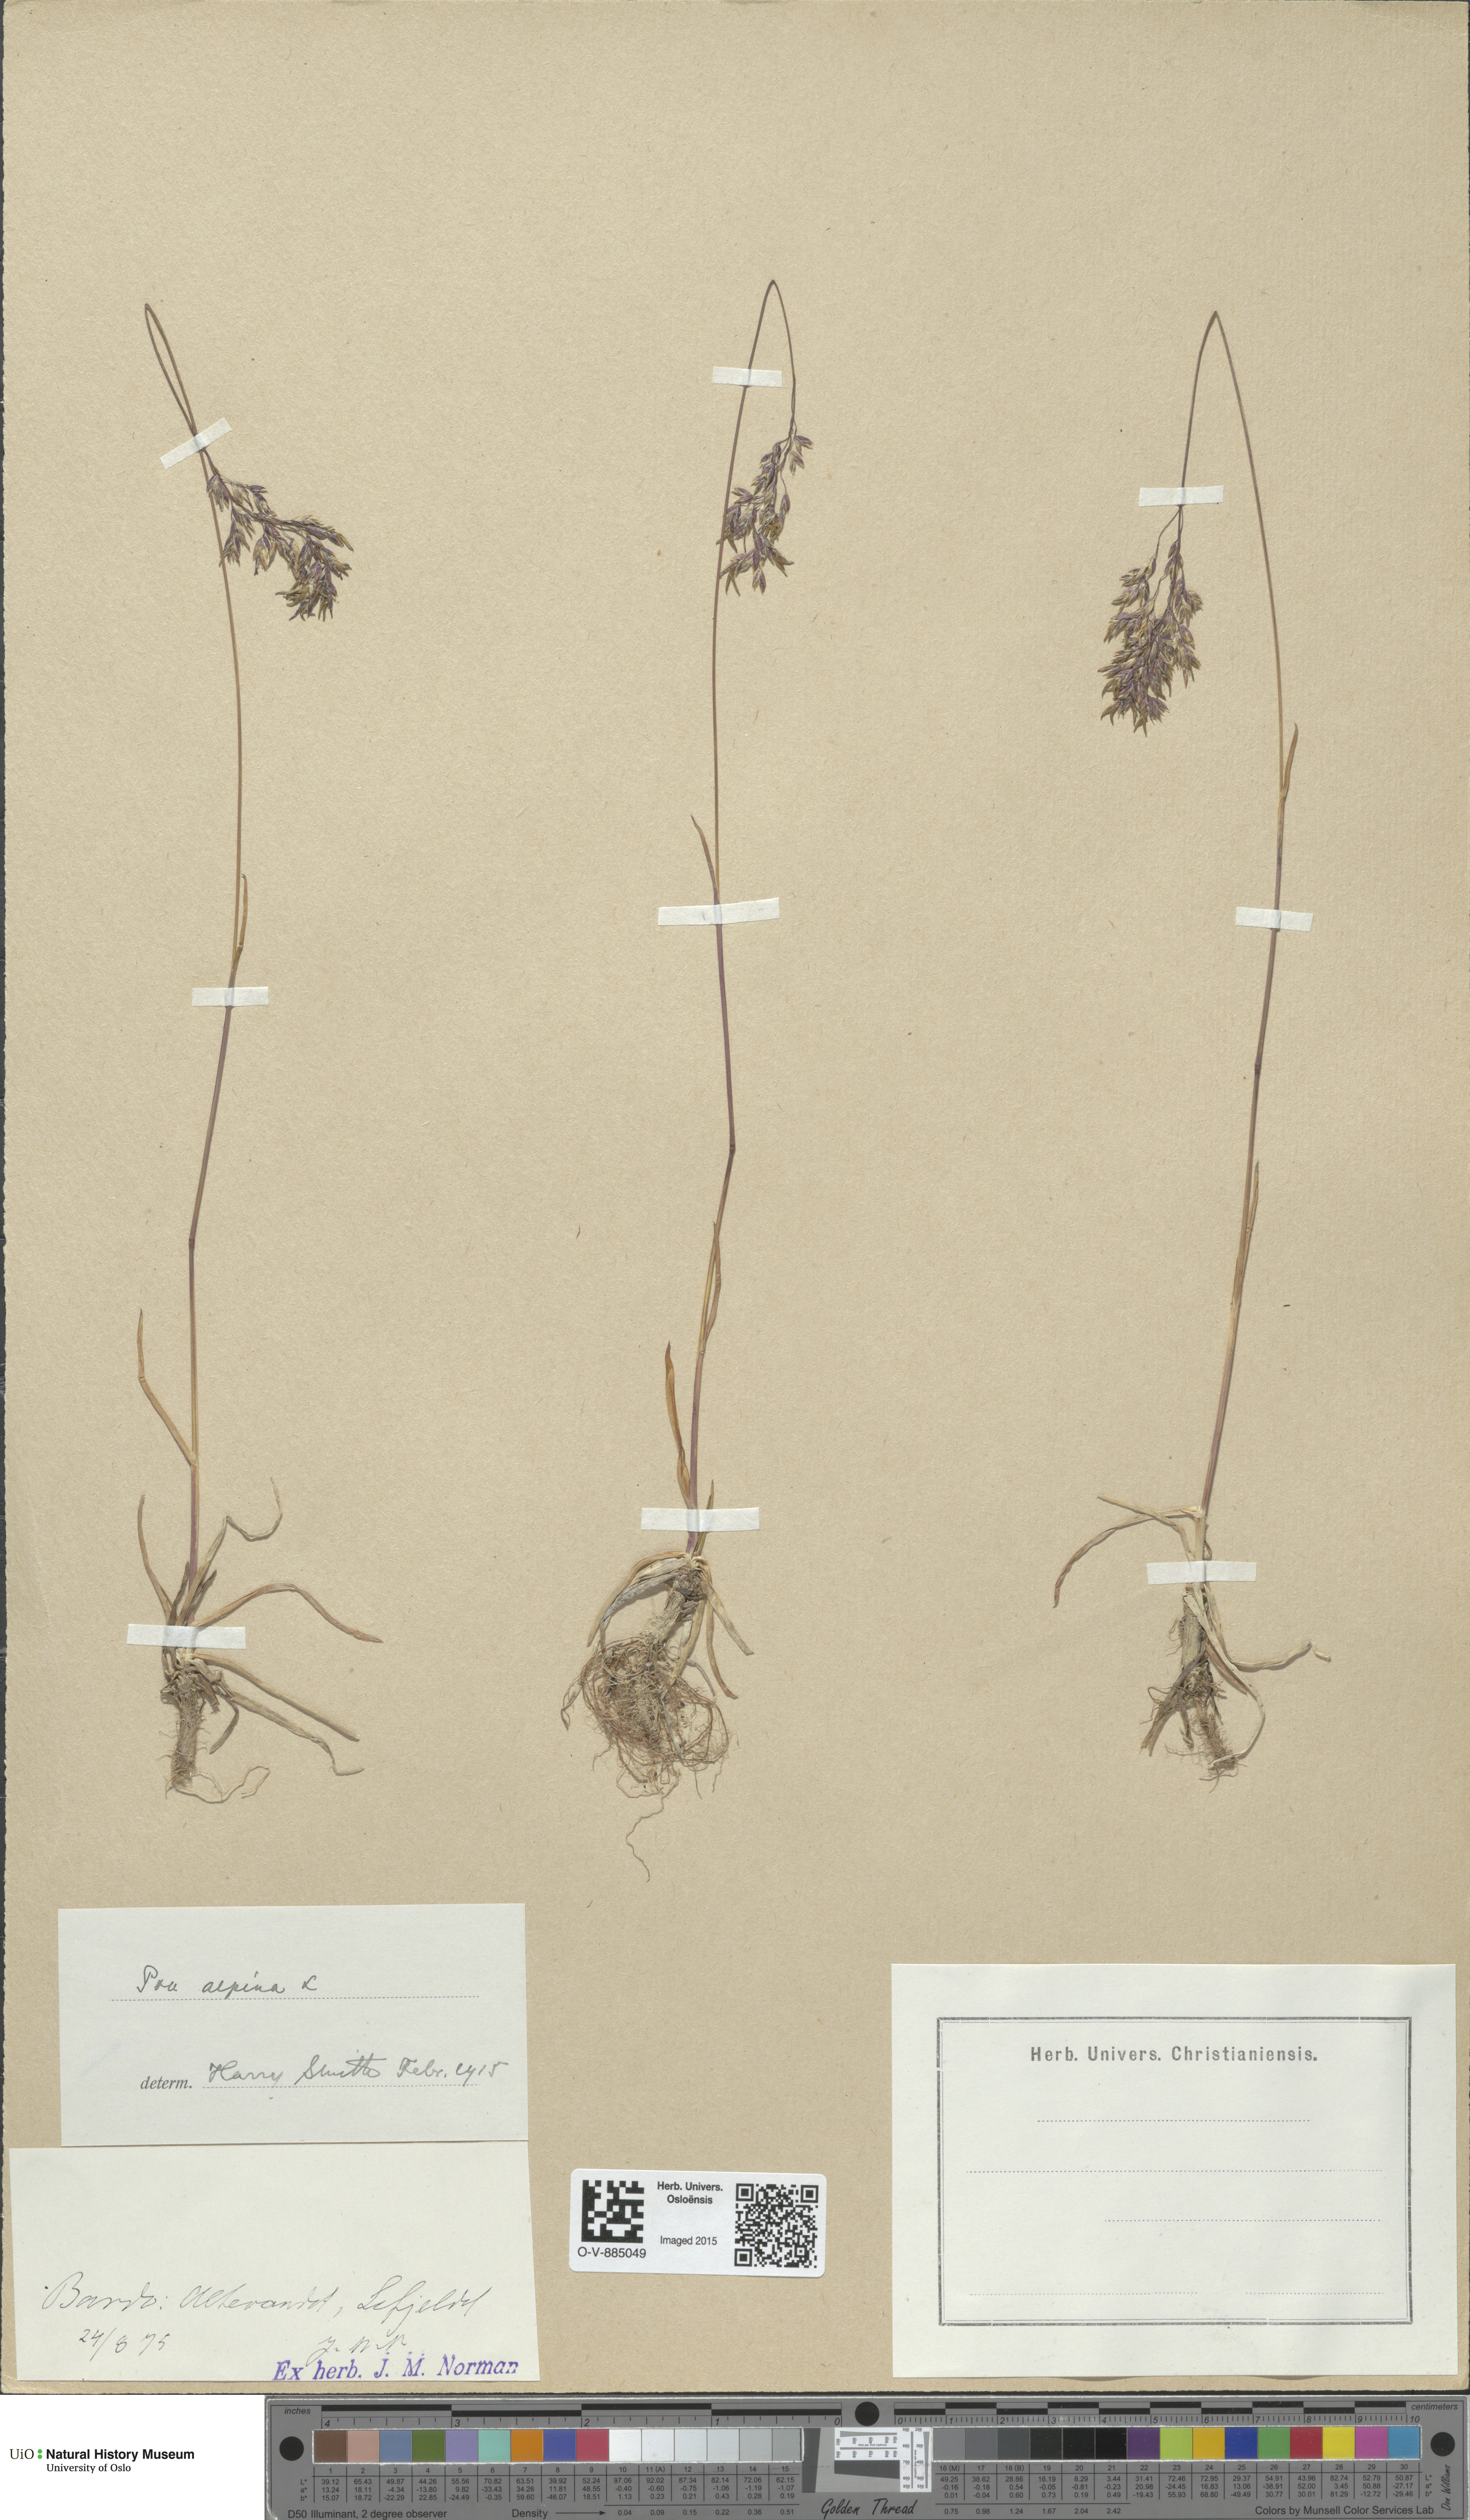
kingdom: Plantae
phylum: Tracheophyta
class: Liliopsida
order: Poales
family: Poaceae
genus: Poa
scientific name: Poa alpina
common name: Alpine bluegrass
